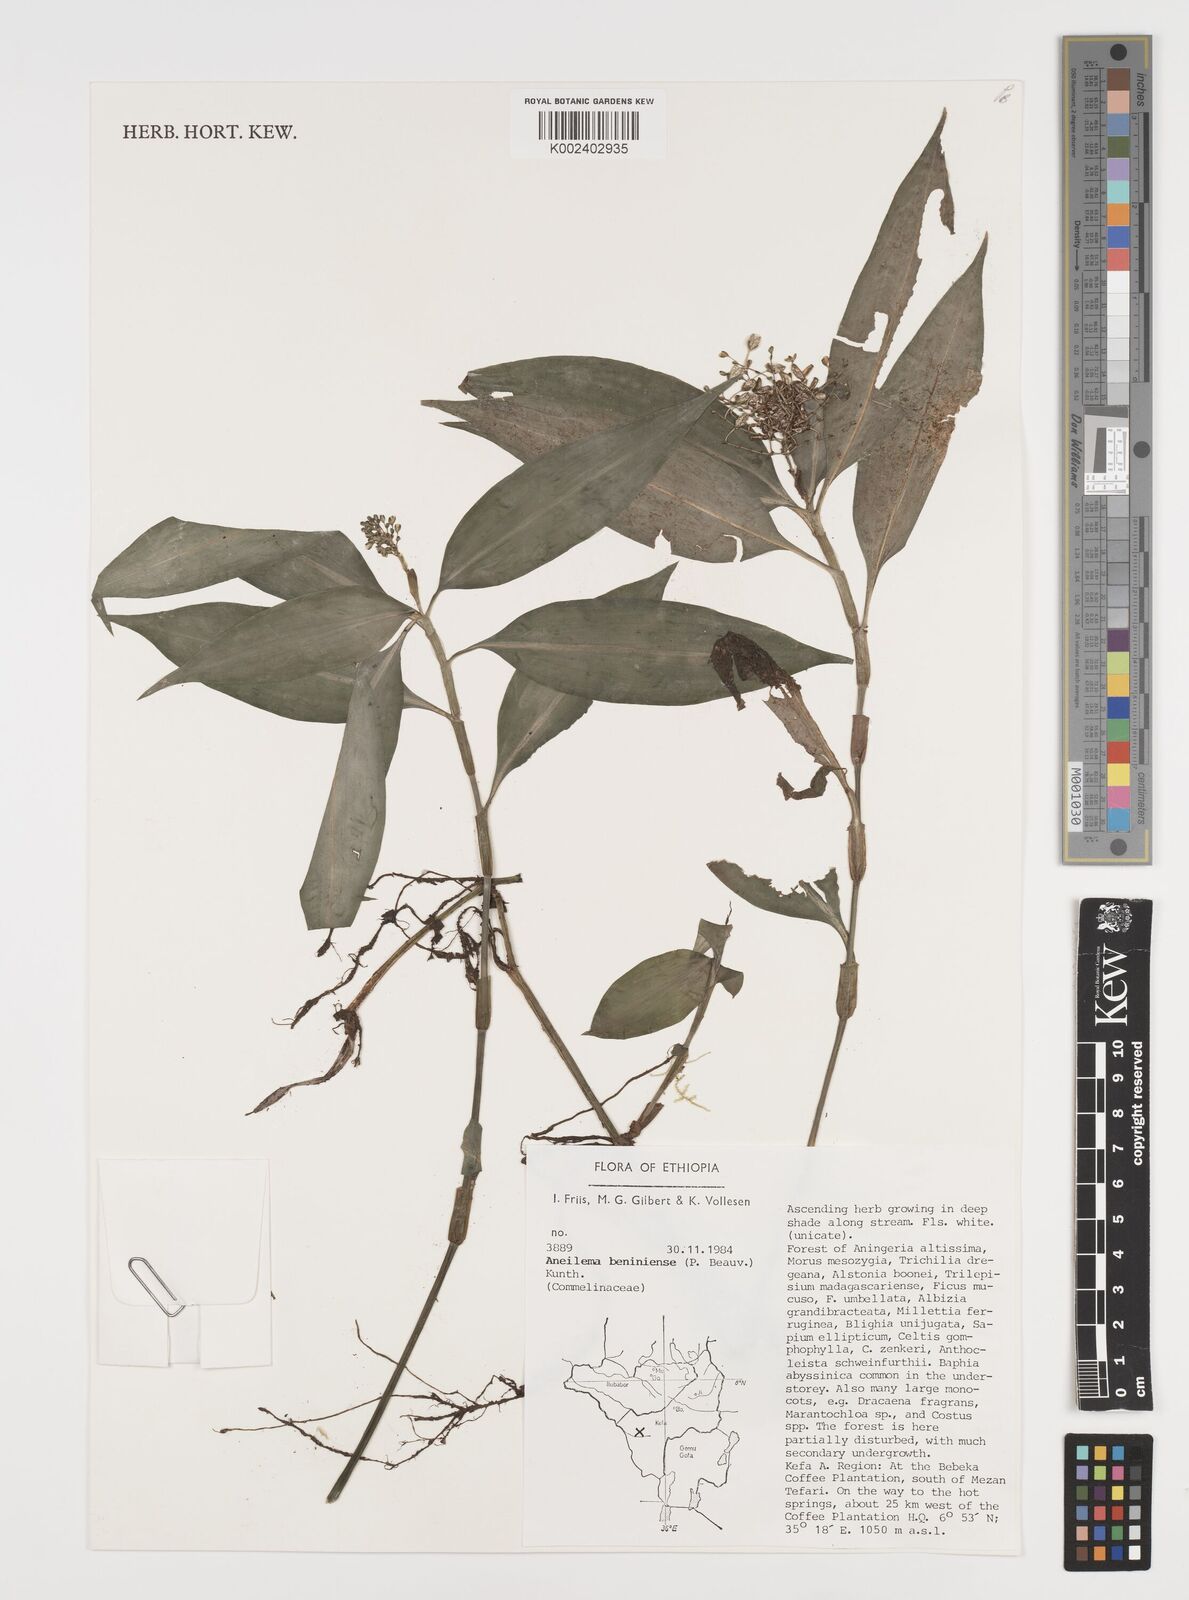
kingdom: Plantae
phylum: Tracheophyta
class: Liliopsida
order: Commelinales
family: Commelinaceae
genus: Aneilema
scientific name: Aneilema beniniense
